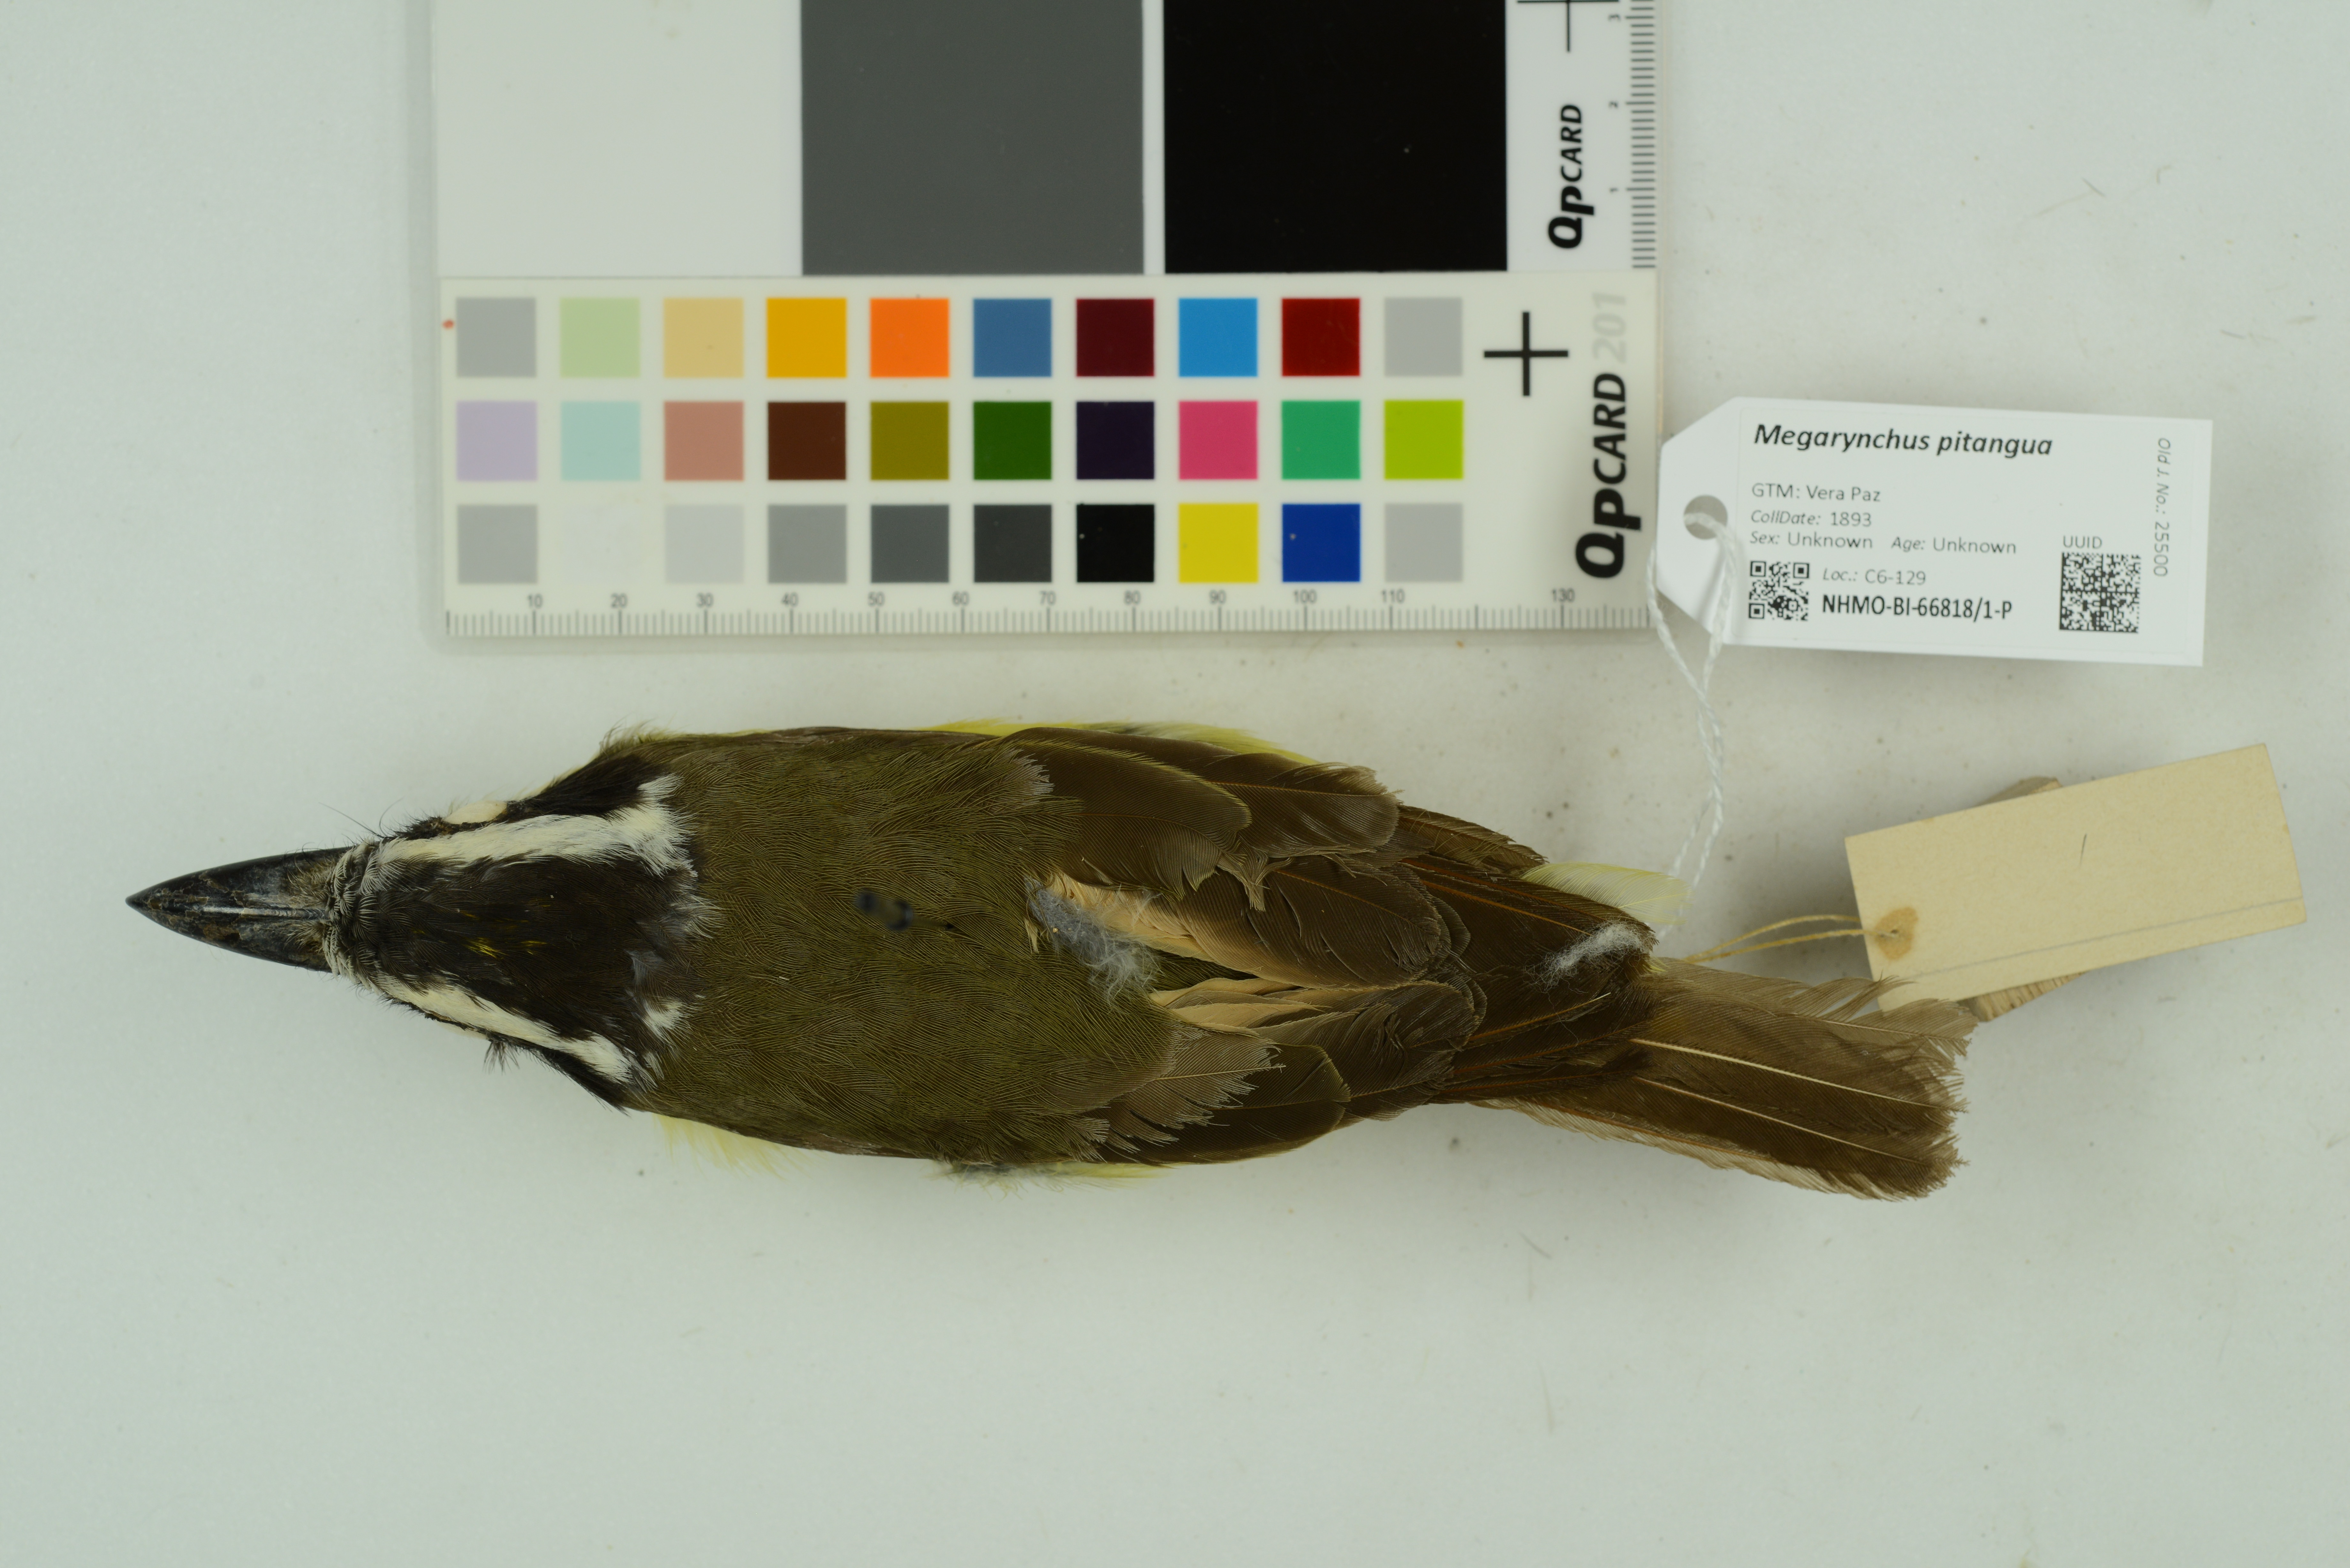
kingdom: Animalia
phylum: Chordata
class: Aves
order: Passeriformes
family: Tyrannidae
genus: Megarynchus
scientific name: Megarynchus pitangua
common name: Boat-billed flycatcher
